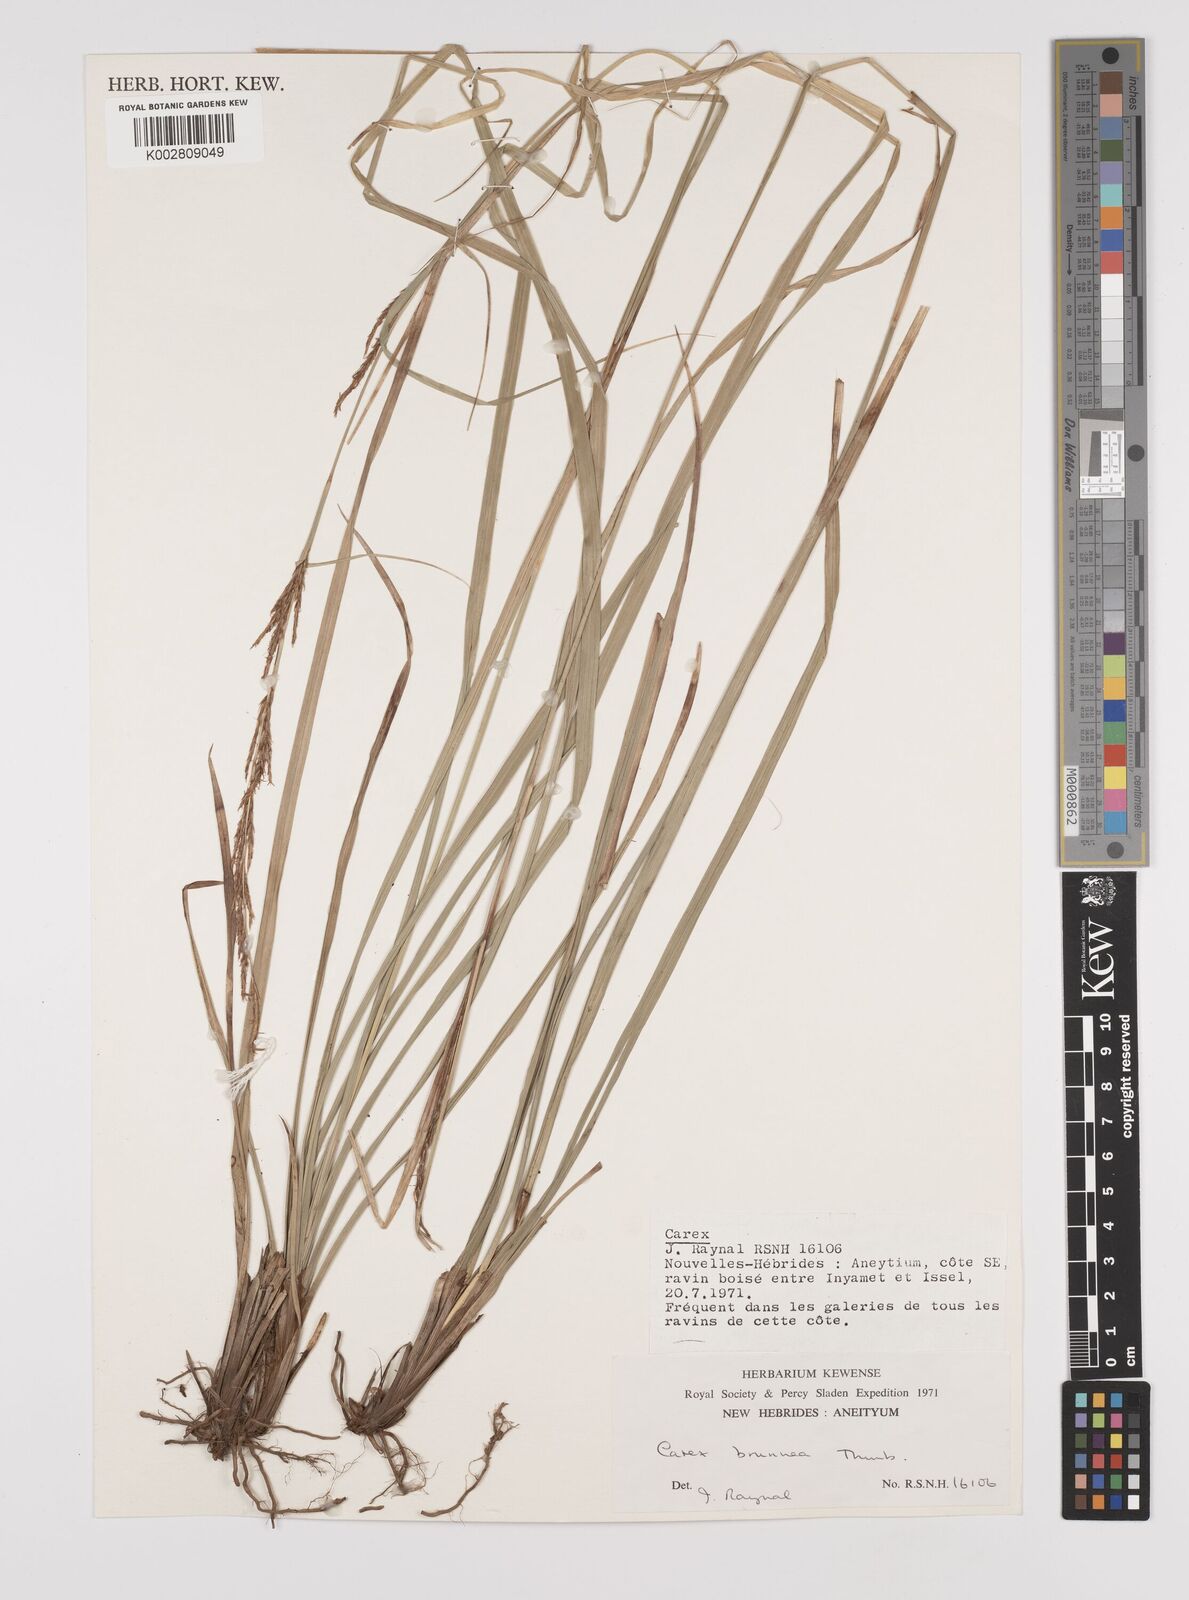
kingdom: Plantae
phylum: Tracheophyta
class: Liliopsida
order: Poales
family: Cyperaceae
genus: Carex
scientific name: Carex brunnea
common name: Greater brown sedge
